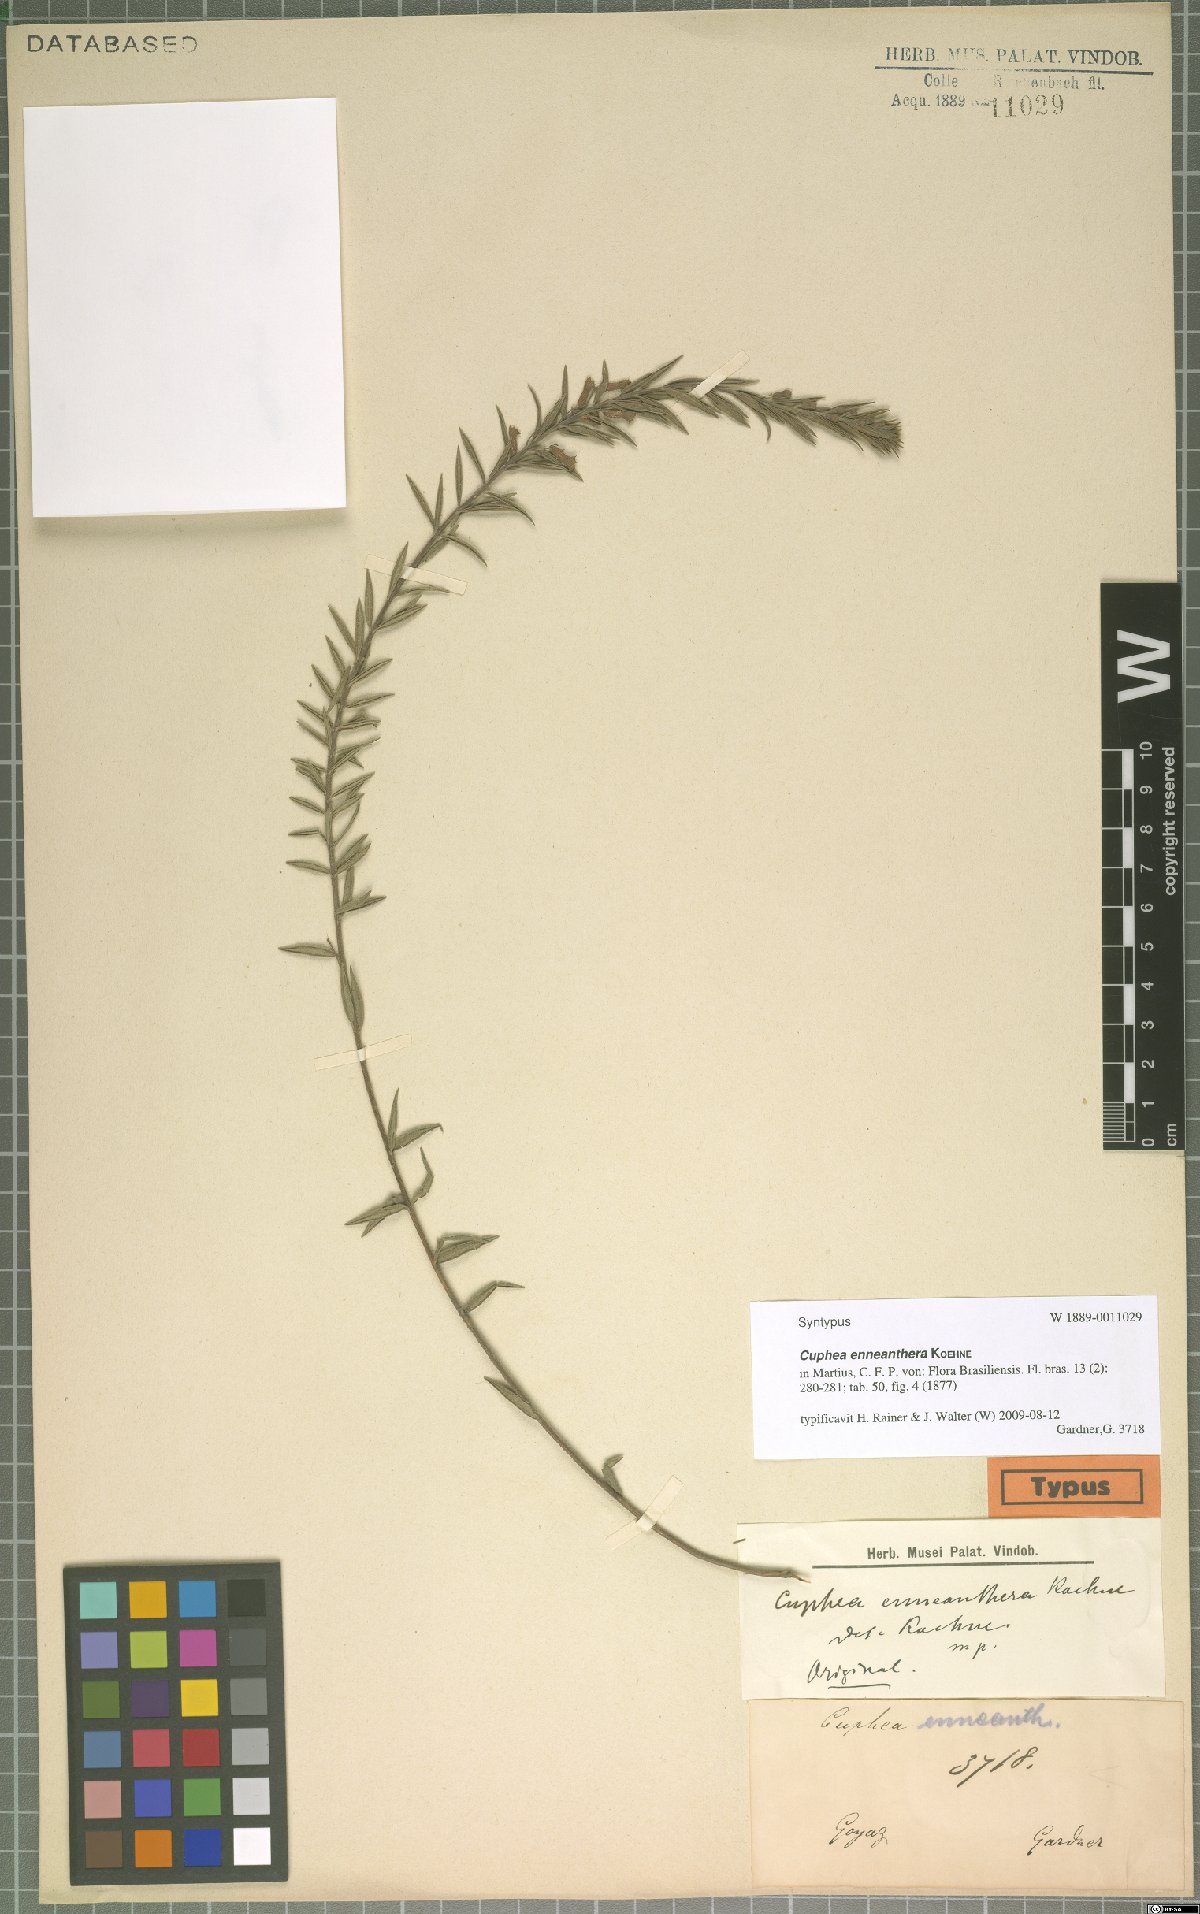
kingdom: Plantae
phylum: Tracheophyta
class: Magnoliopsida
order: Myrtales
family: Lythraceae
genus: Cuphea
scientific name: Cuphea retrorsicapilla
